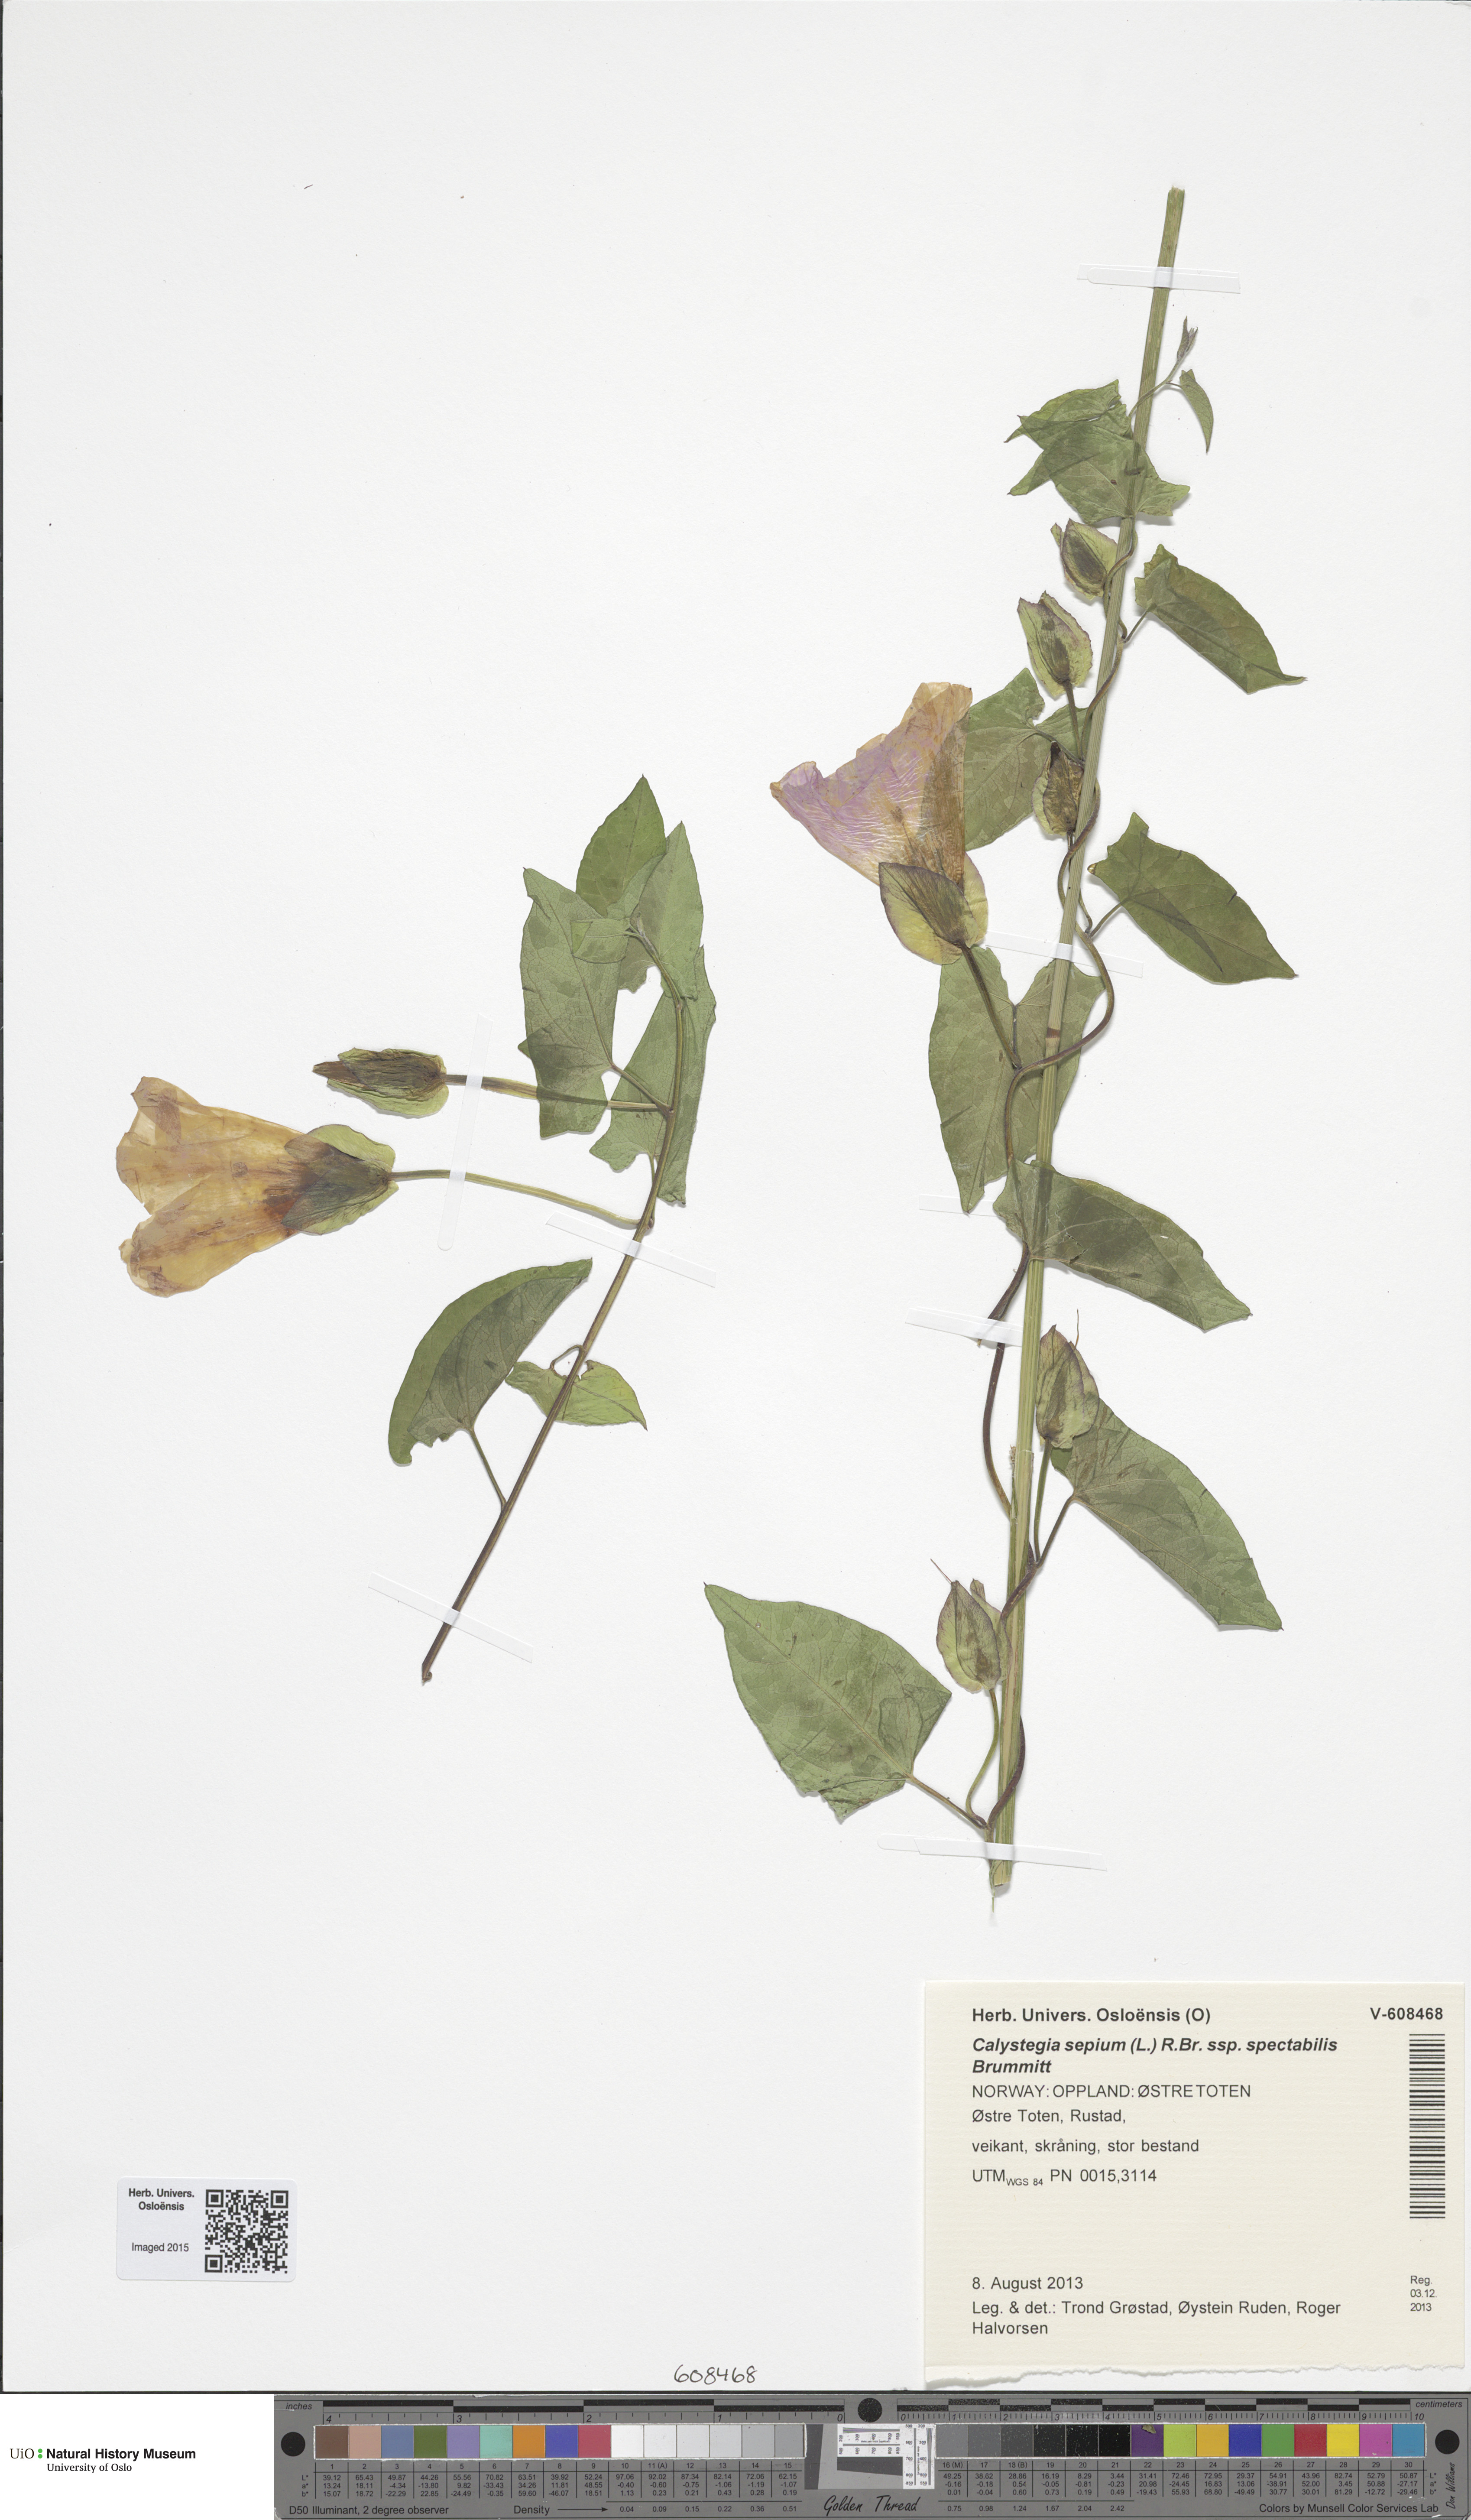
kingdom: Plantae
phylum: Tracheophyta
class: Magnoliopsida
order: Solanales
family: Convolvulaceae
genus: Calystegia
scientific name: Calystegia sepium
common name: Hedge bindweed
